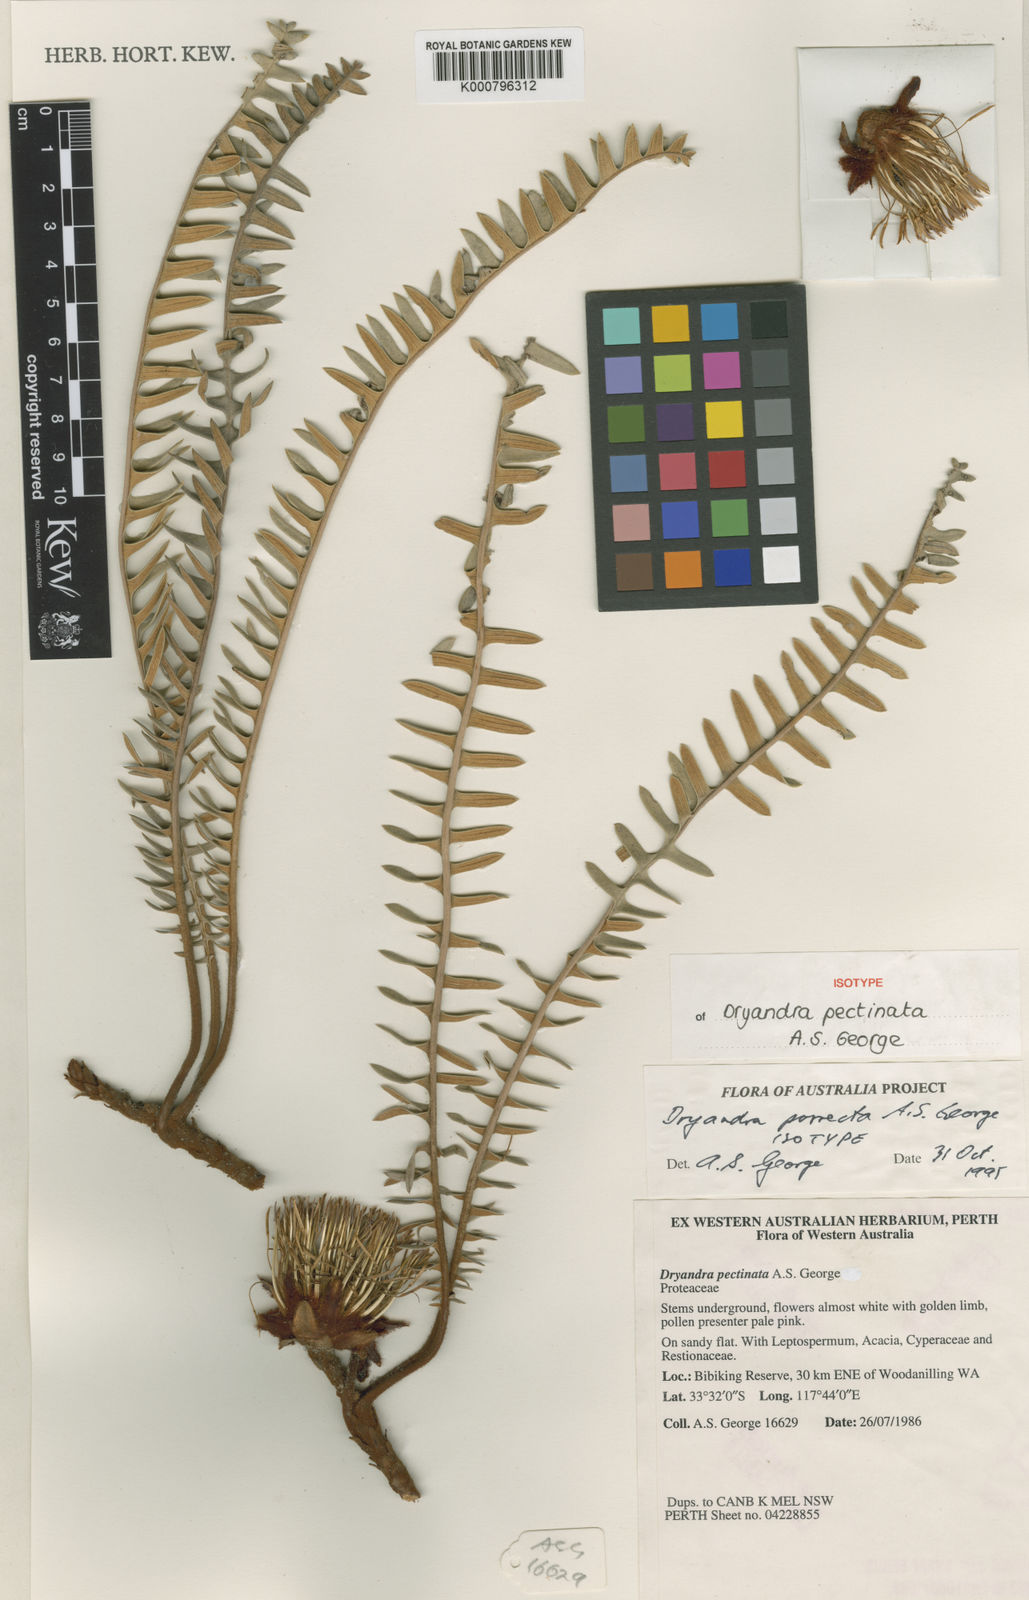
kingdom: Plantae
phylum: Tracheophyta
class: Magnoliopsida
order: Malpighiales
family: Euphorbiaceae
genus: Vernicia
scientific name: Vernicia
